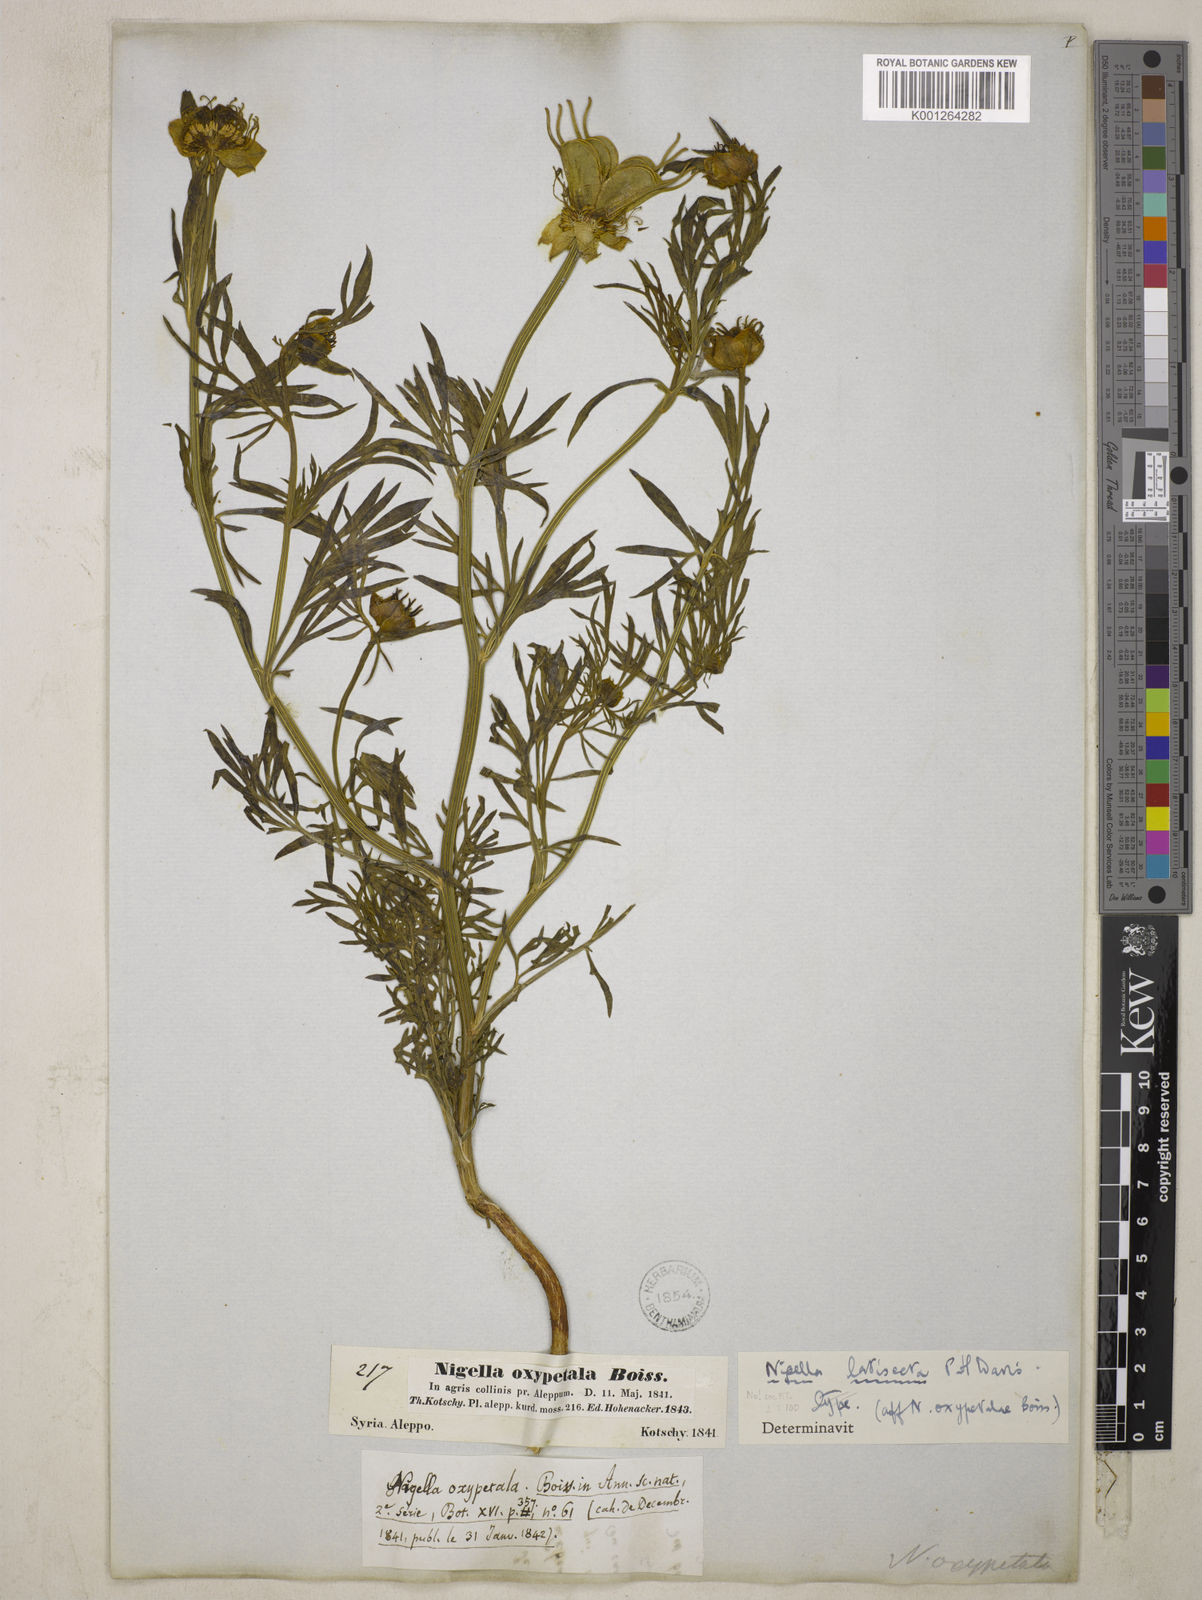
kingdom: Plantae
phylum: Tracheophyta
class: Magnoliopsida
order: Ranunculales
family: Ranunculaceae
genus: Nigella
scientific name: Nigella oxypetala
